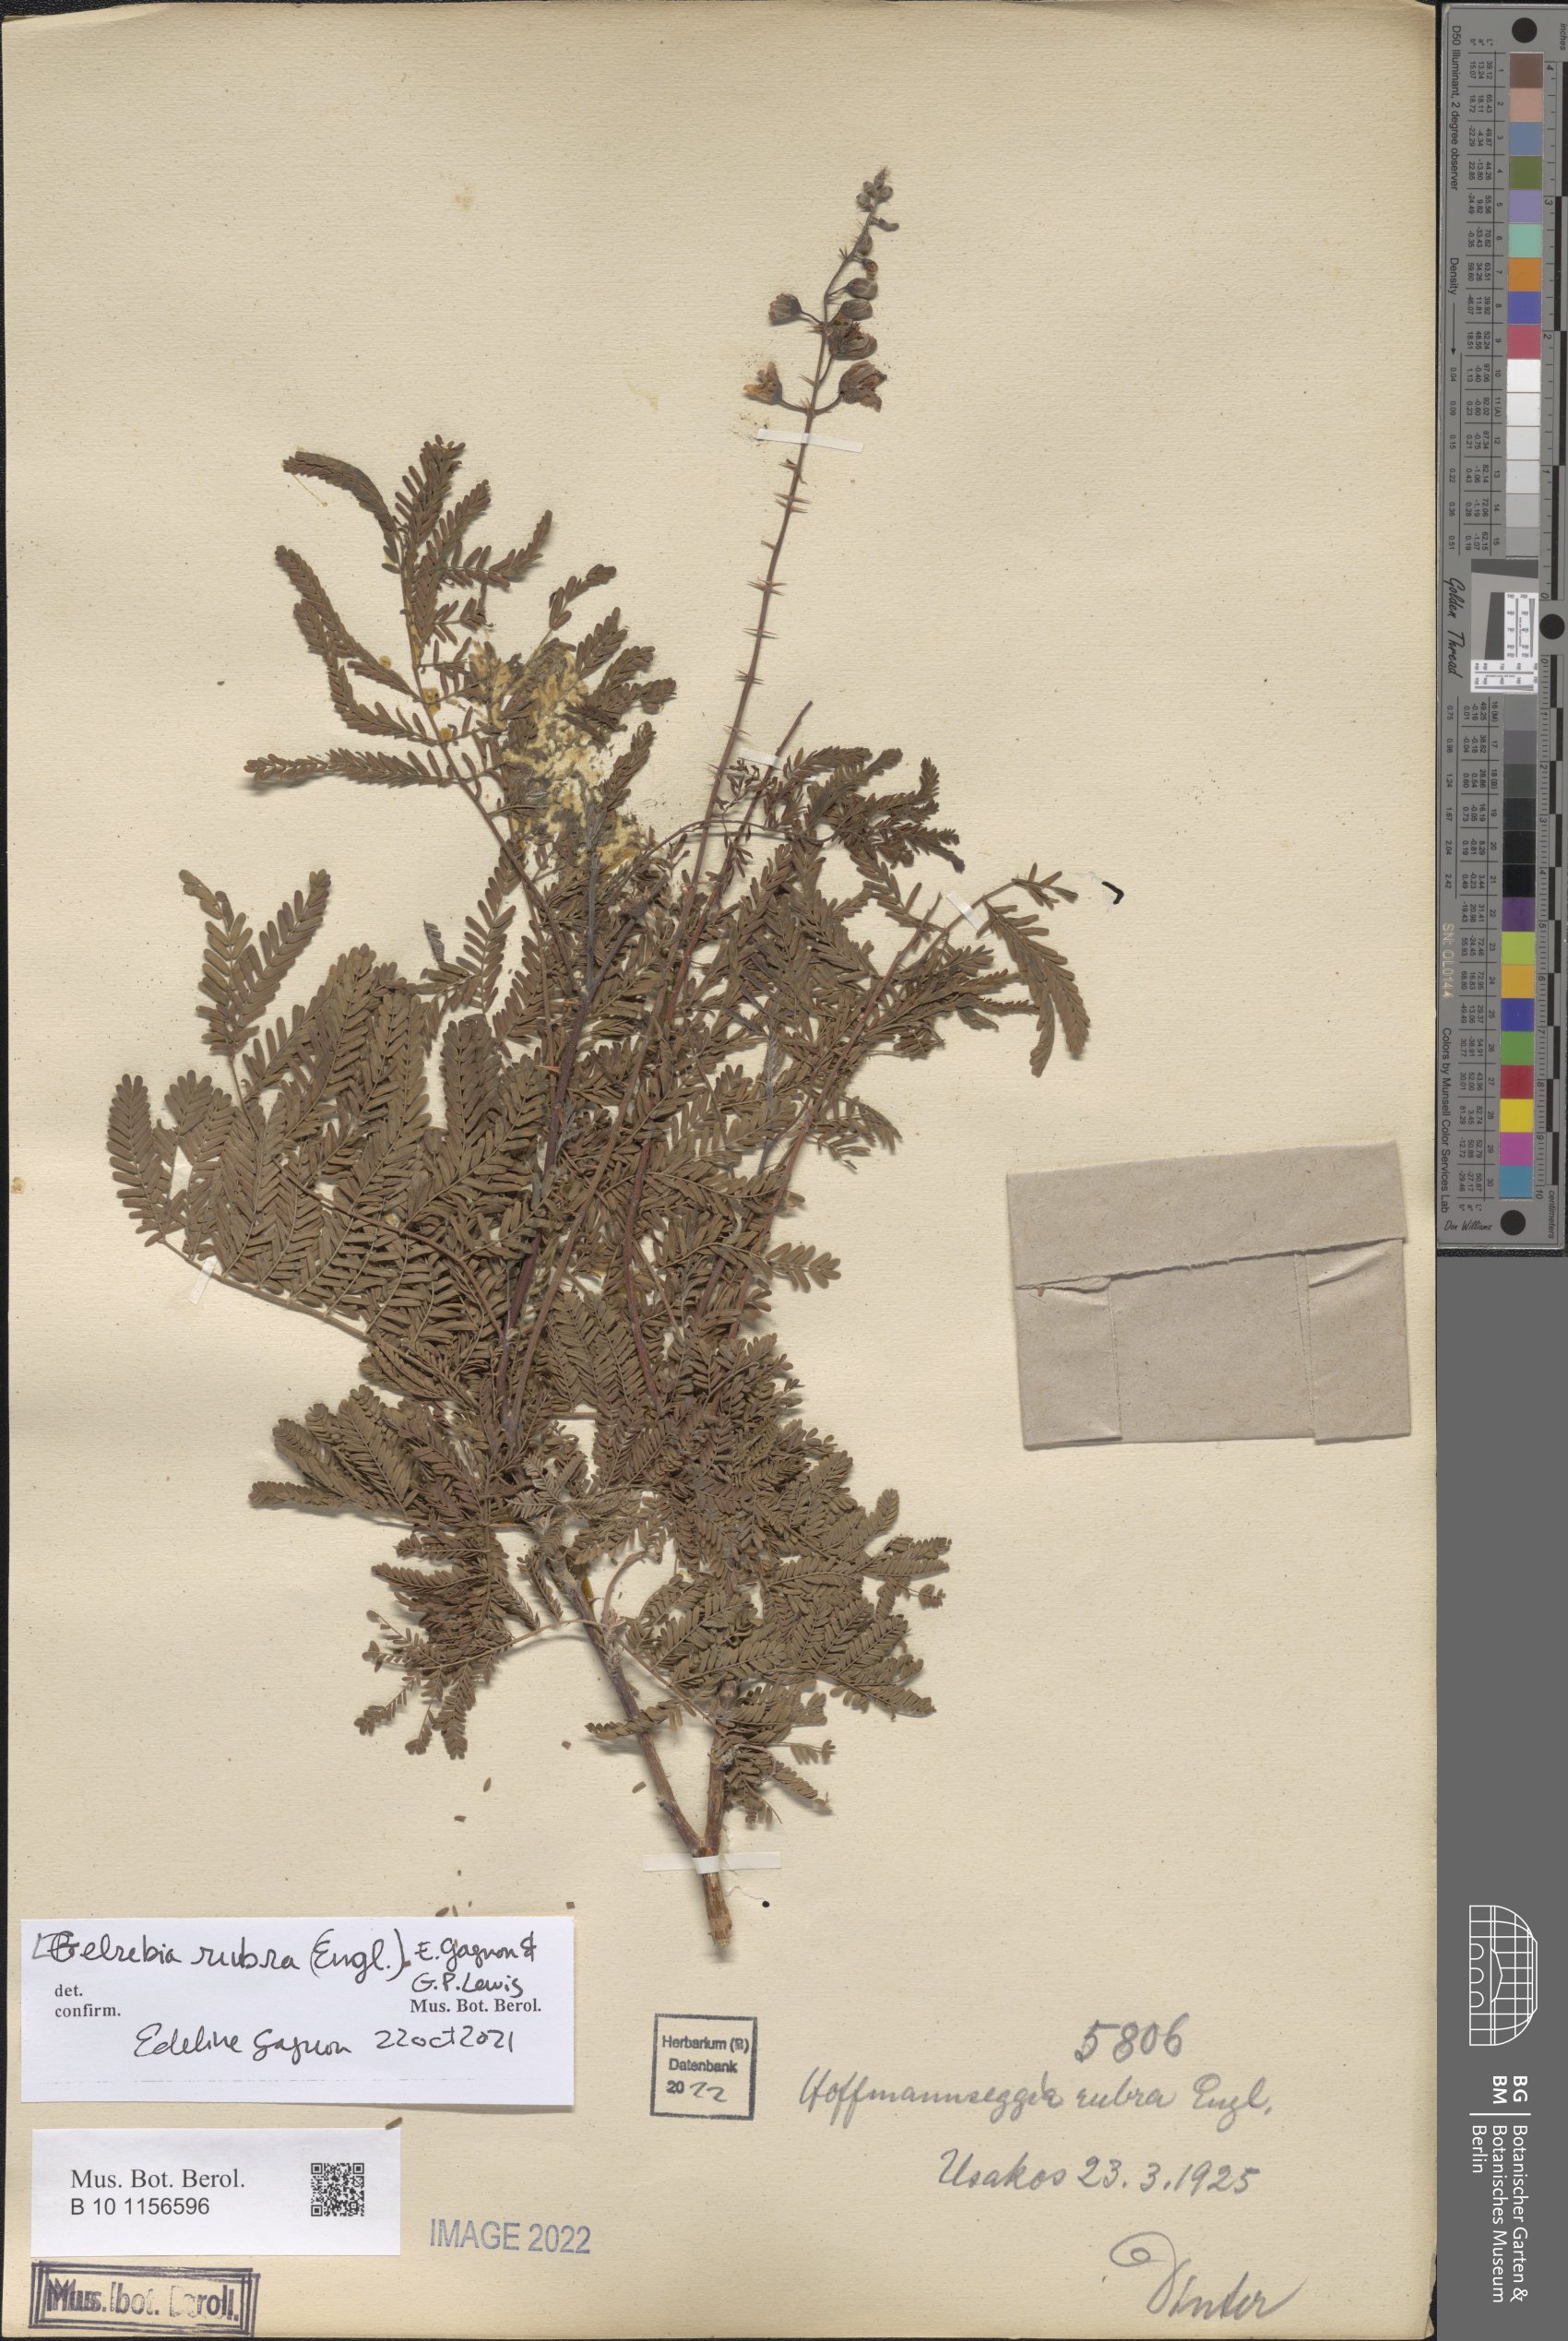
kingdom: Plantae
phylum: Tracheophyta
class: Magnoliopsida
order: Fabales
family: Fabaceae
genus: Gelrebia
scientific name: Gelrebia rubra
